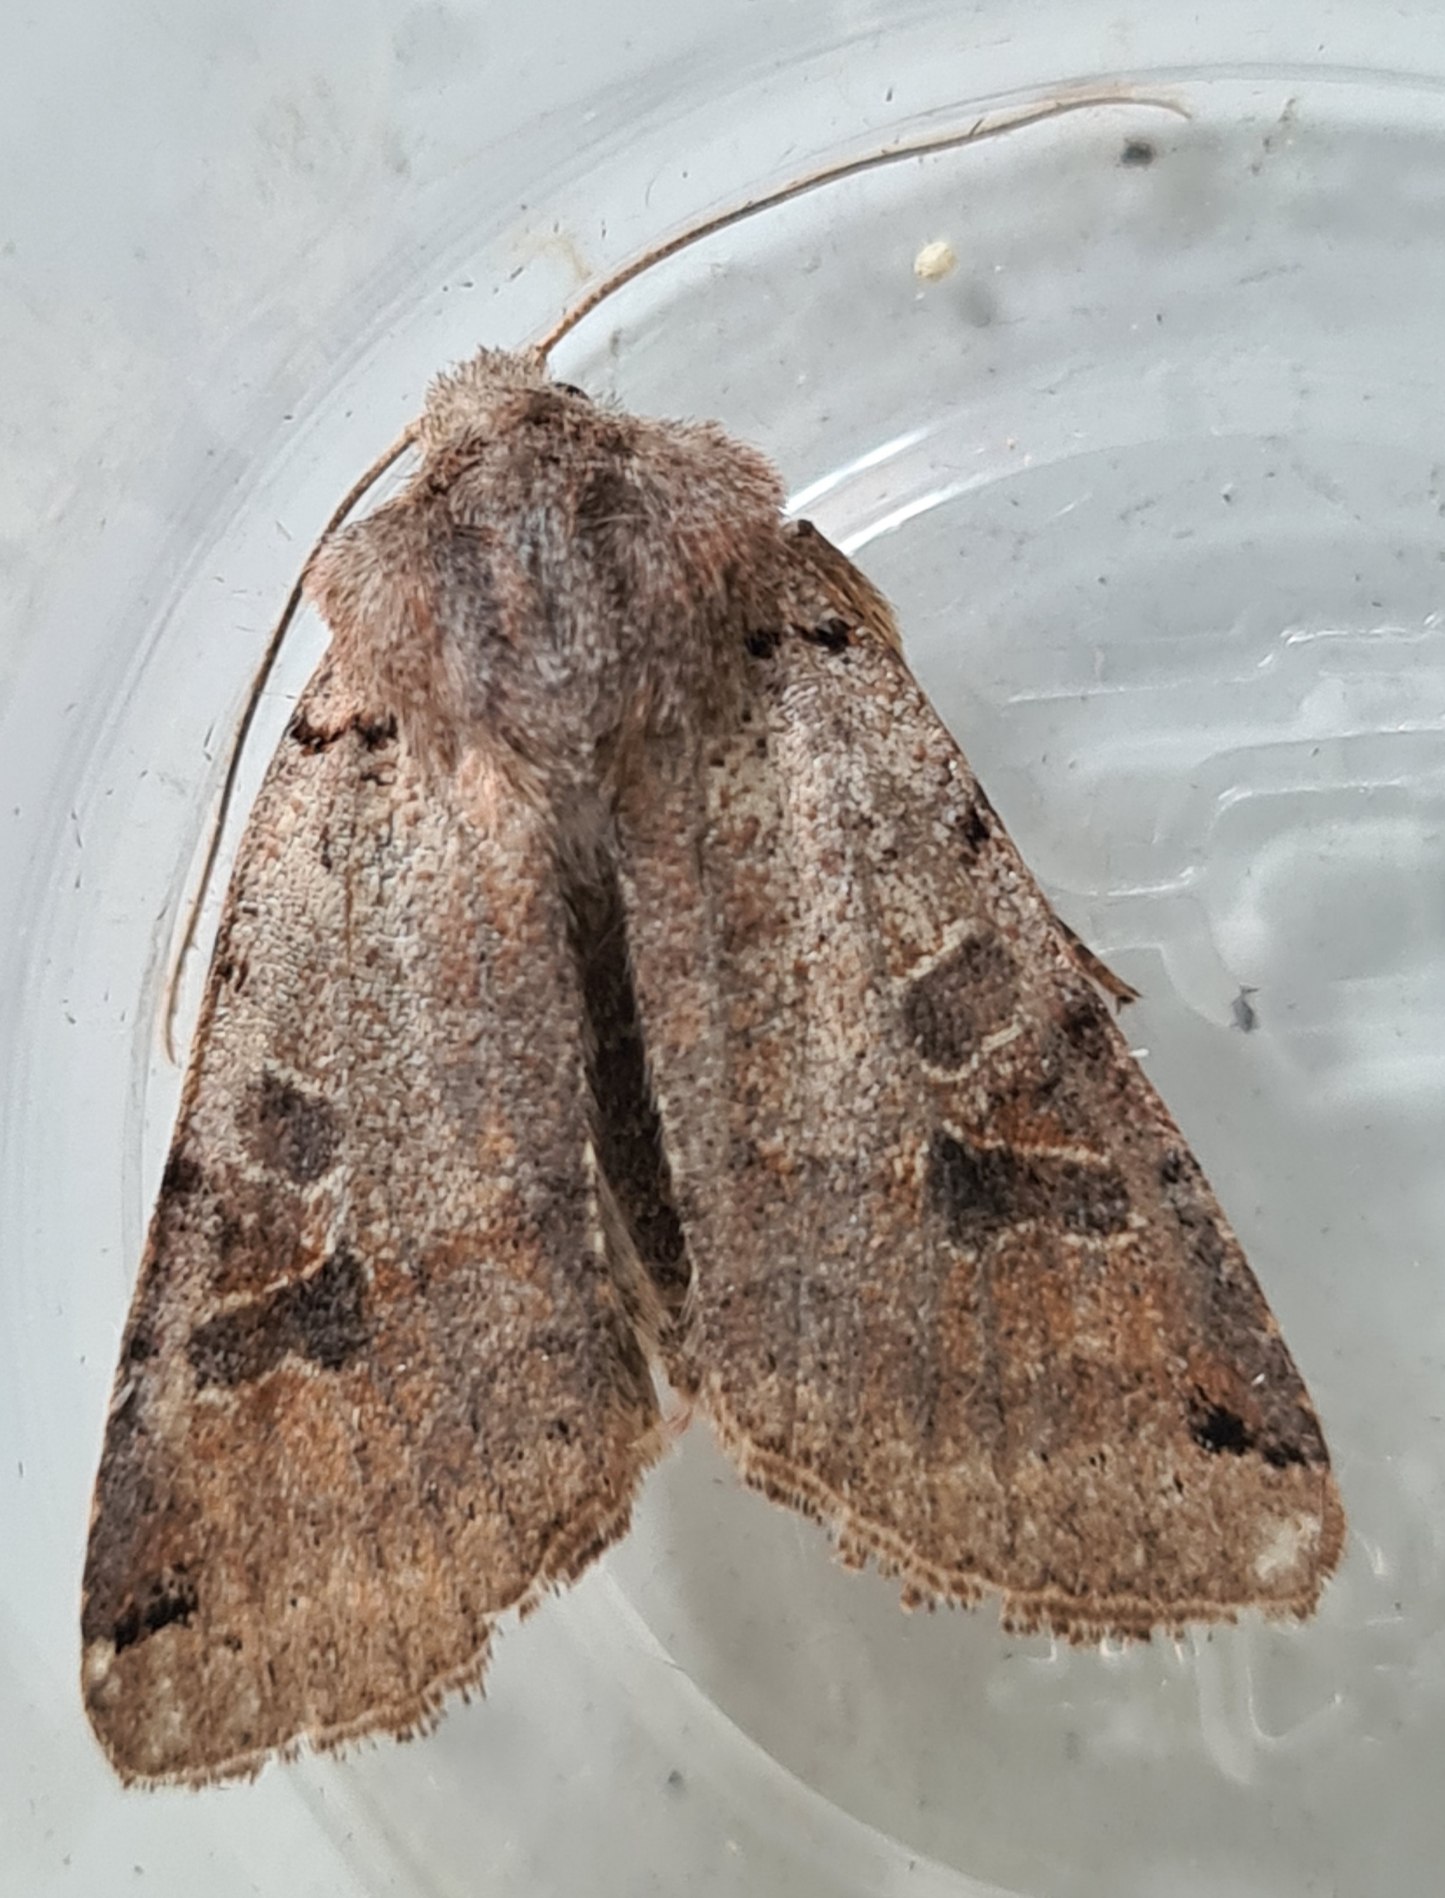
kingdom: Animalia
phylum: Arthropoda
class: Insecta
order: Lepidoptera
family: Noctuidae
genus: Agrochola
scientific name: Agrochola litura
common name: Kantplettet jordfarveugle
